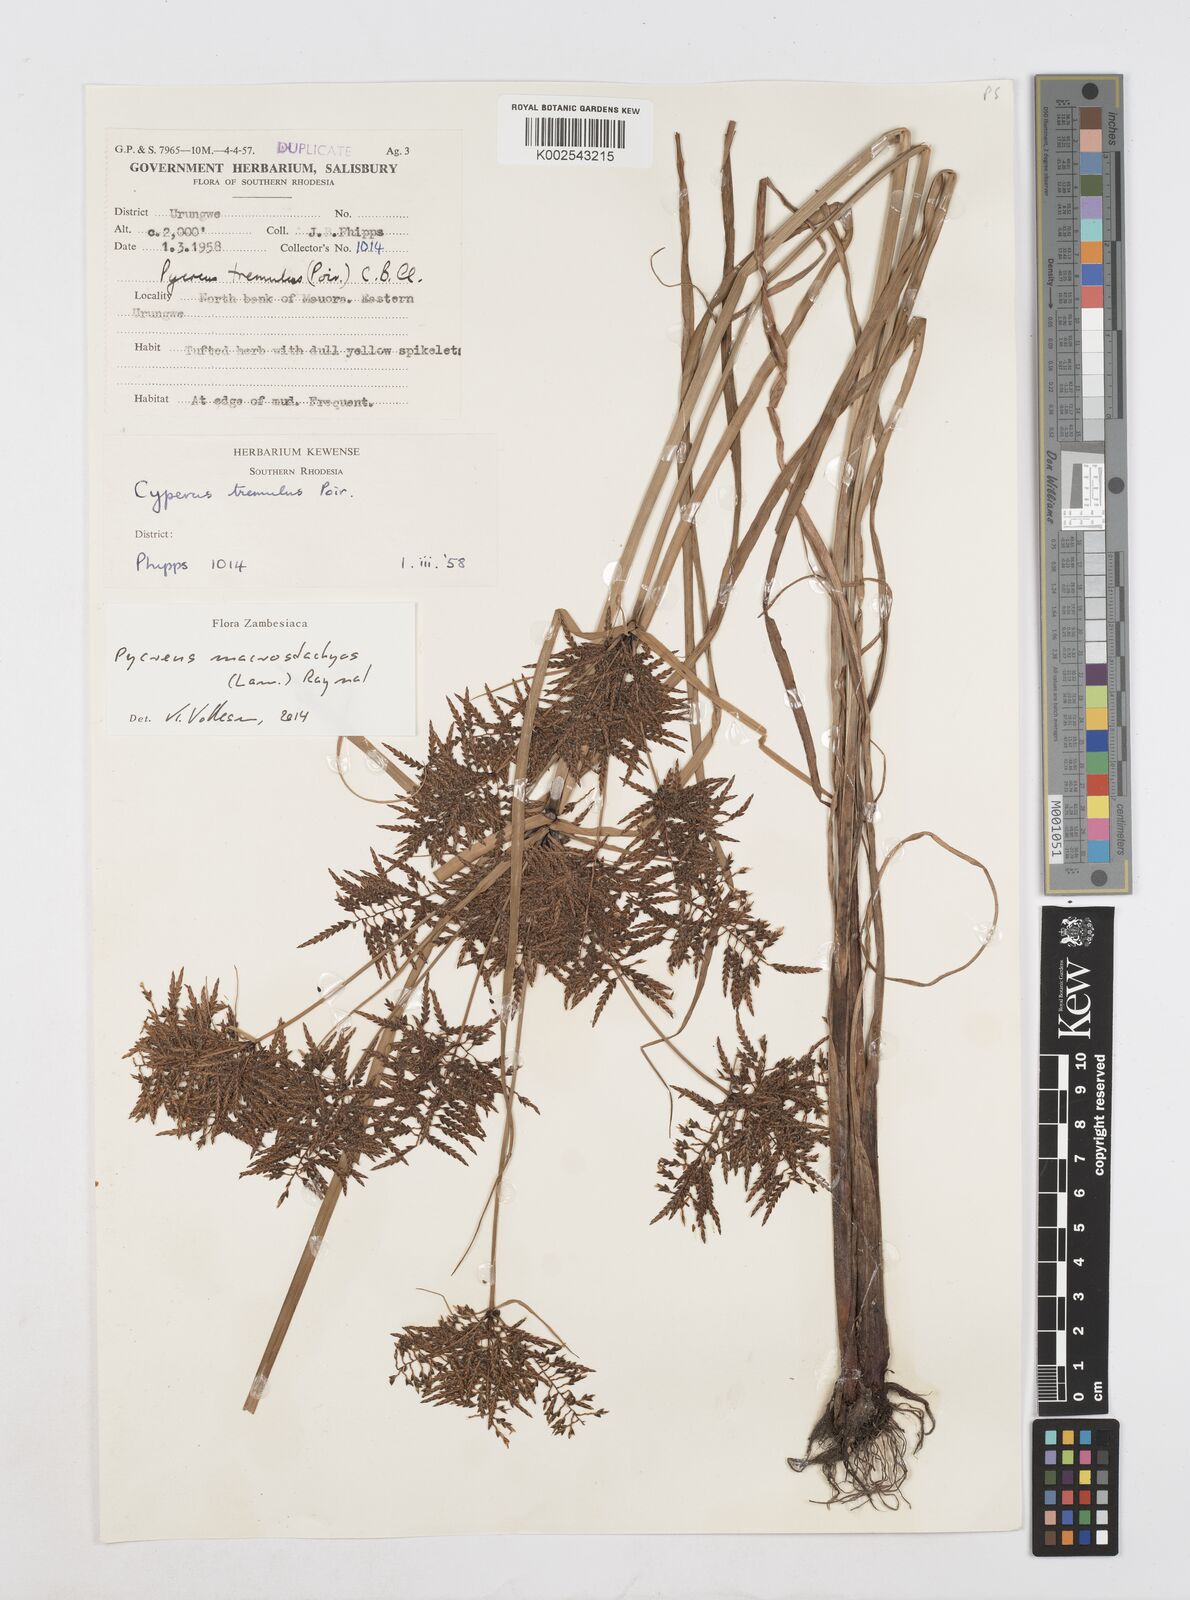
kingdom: Plantae
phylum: Tracheophyta
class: Liliopsida
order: Poales
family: Cyperaceae
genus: Cyperus
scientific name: Cyperus macrostachyos
